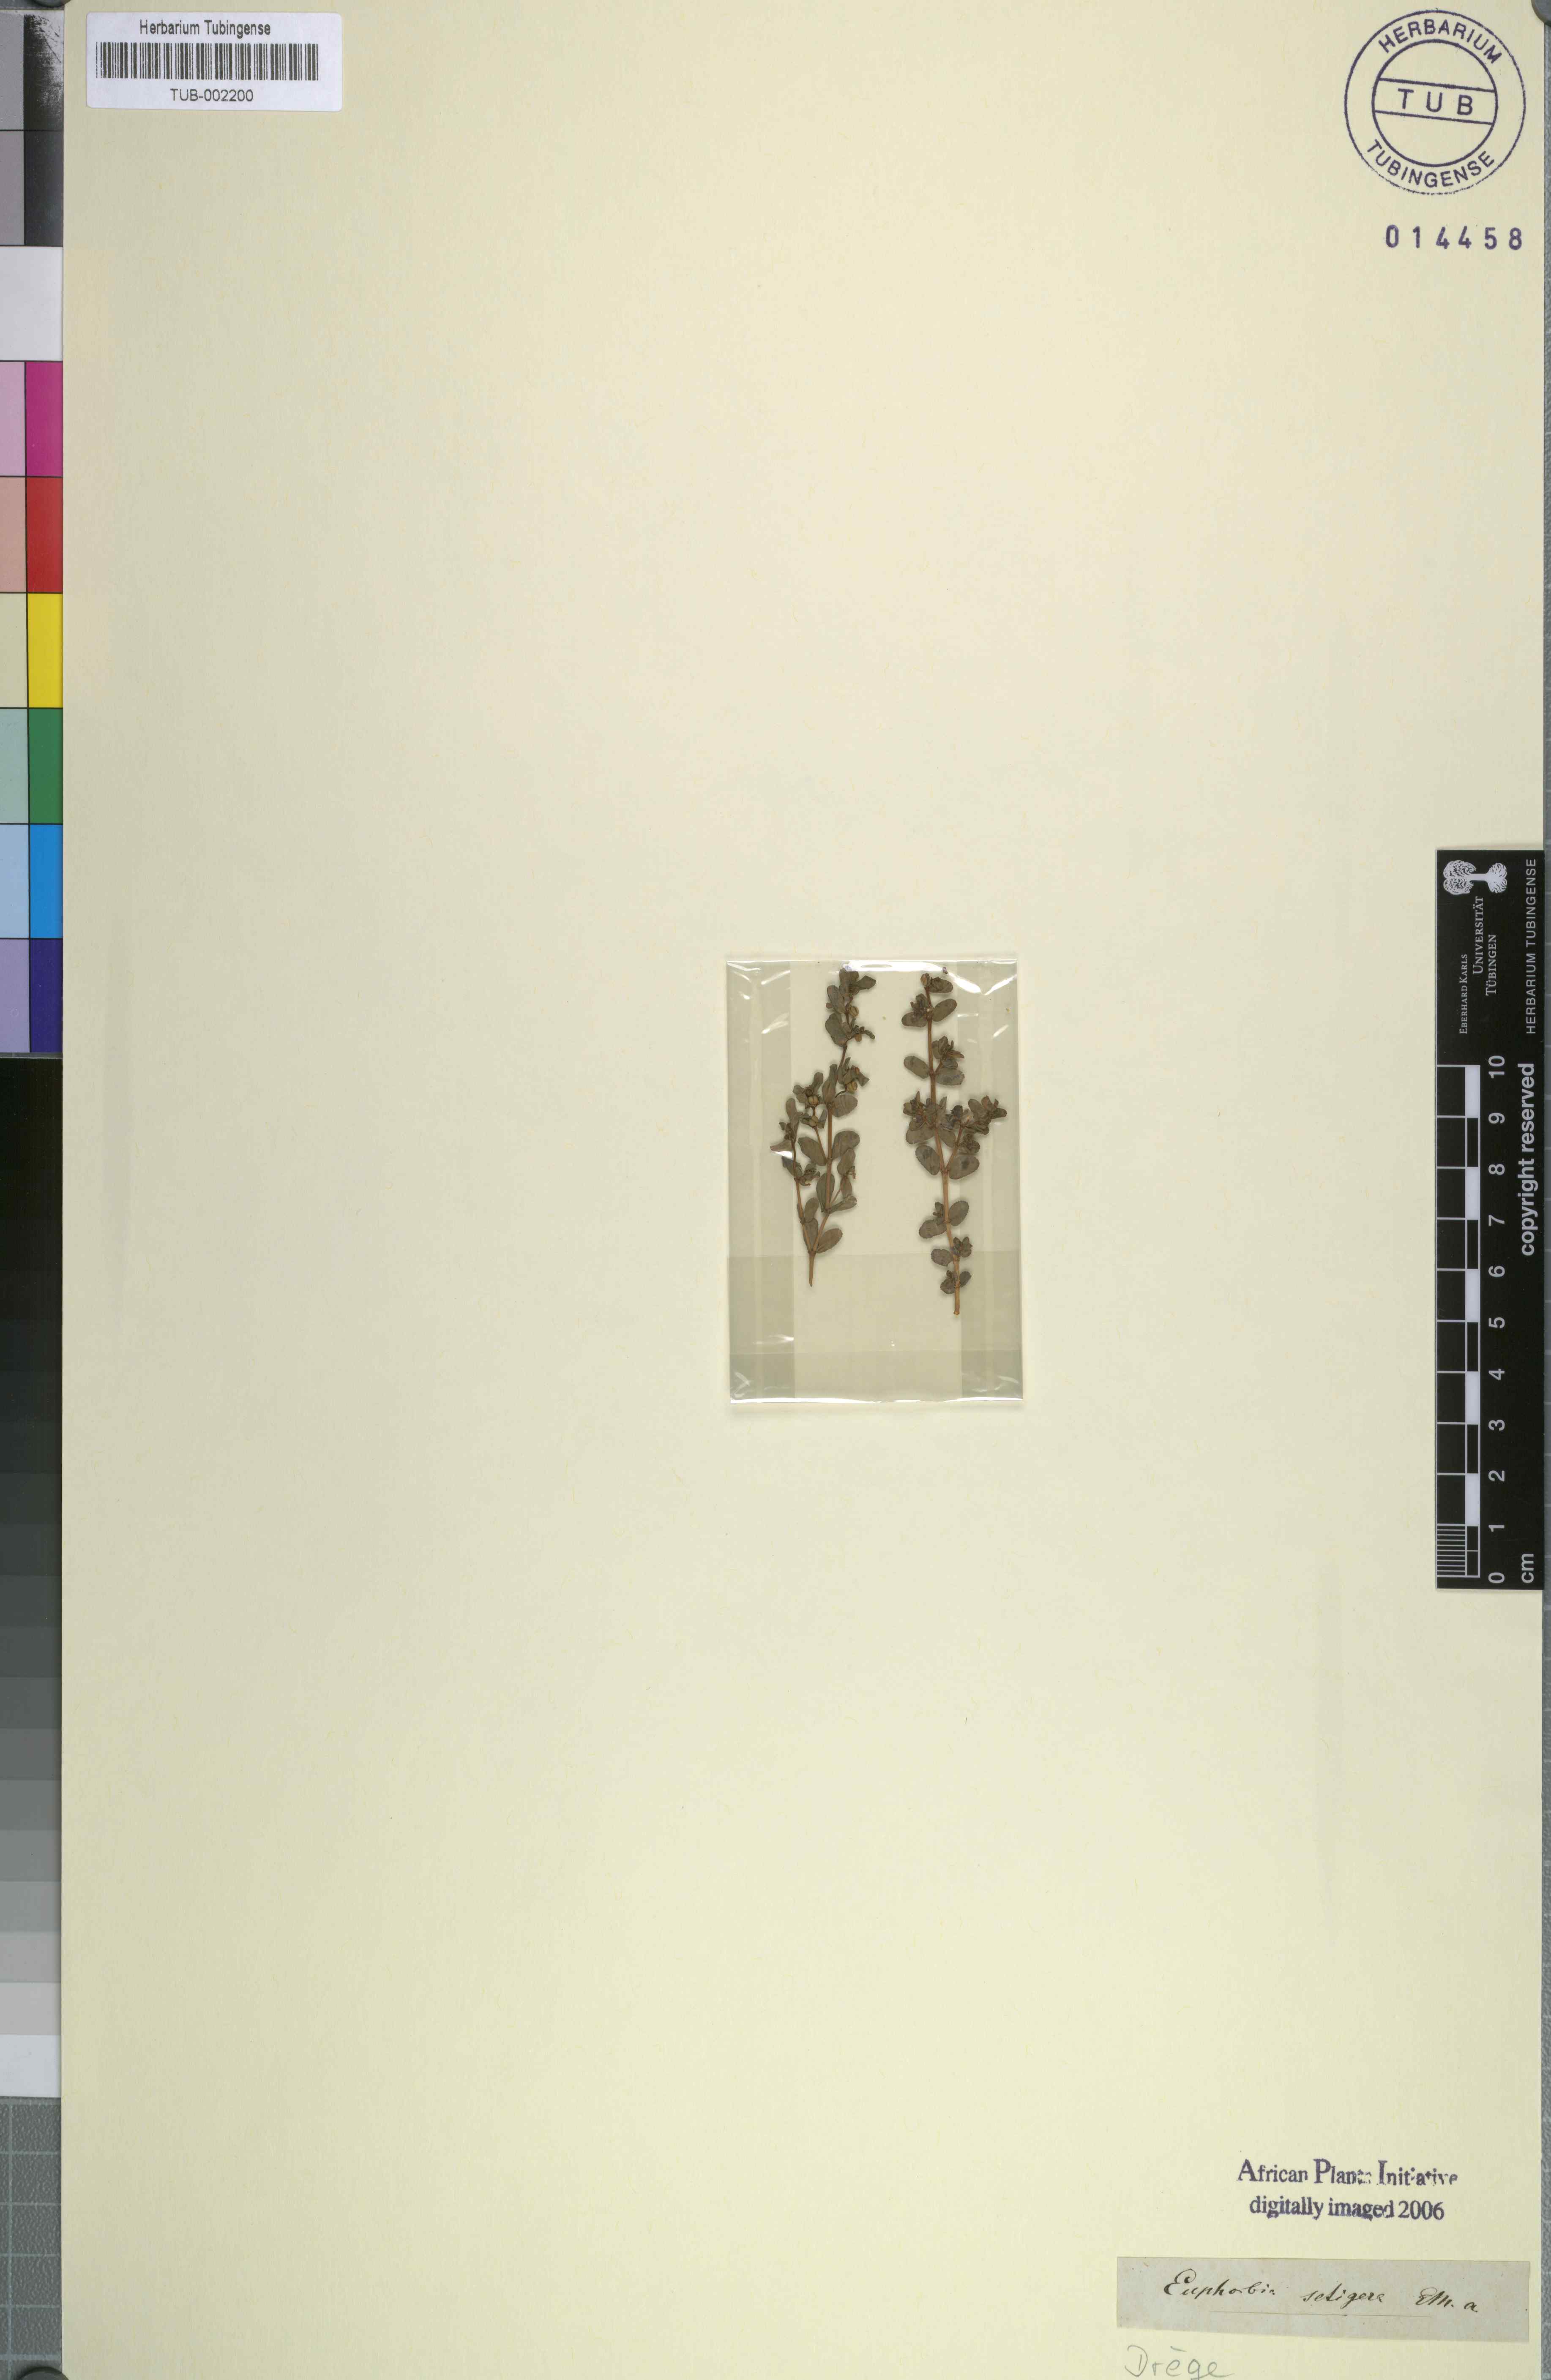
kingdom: Plantae
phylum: Tracheophyta
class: Magnoliopsida
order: Malpighiales
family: Euphorbiaceae
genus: Euphorbia
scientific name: Euphorbia inaequilatera
